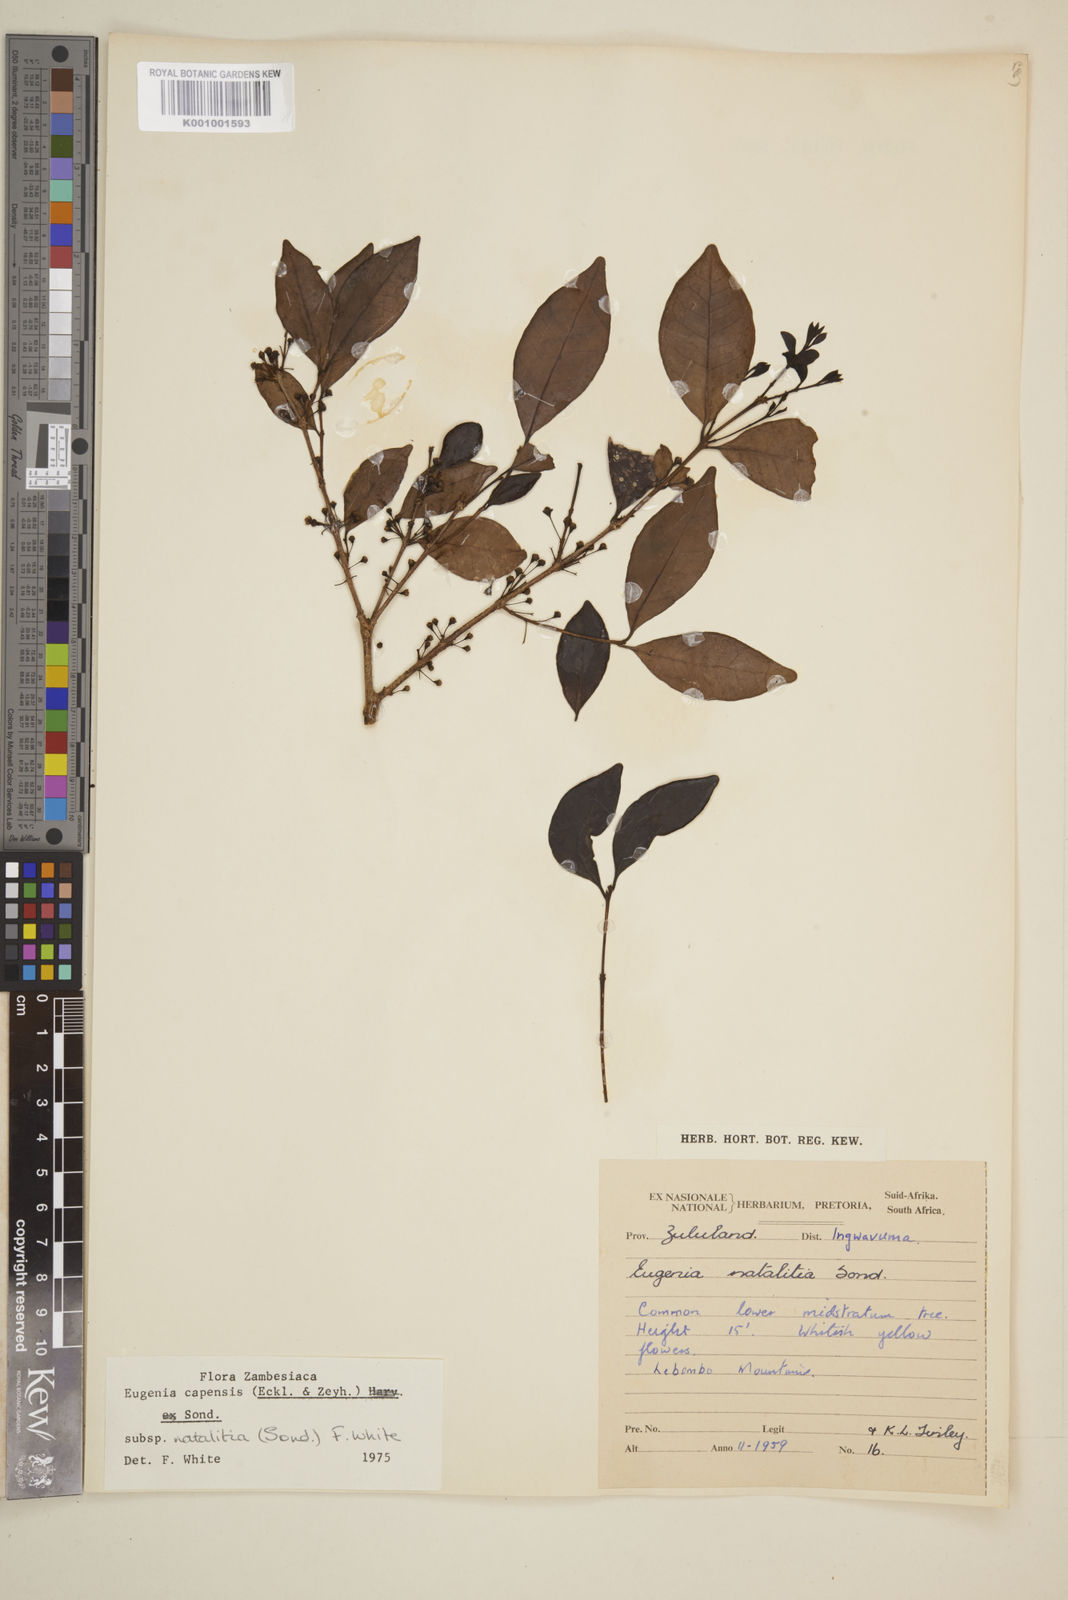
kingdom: Plantae
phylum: Tracheophyta
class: Magnoliopsida
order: Myrtales
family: Myrtaceae
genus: Eugenia
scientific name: Eugenia natalitia
